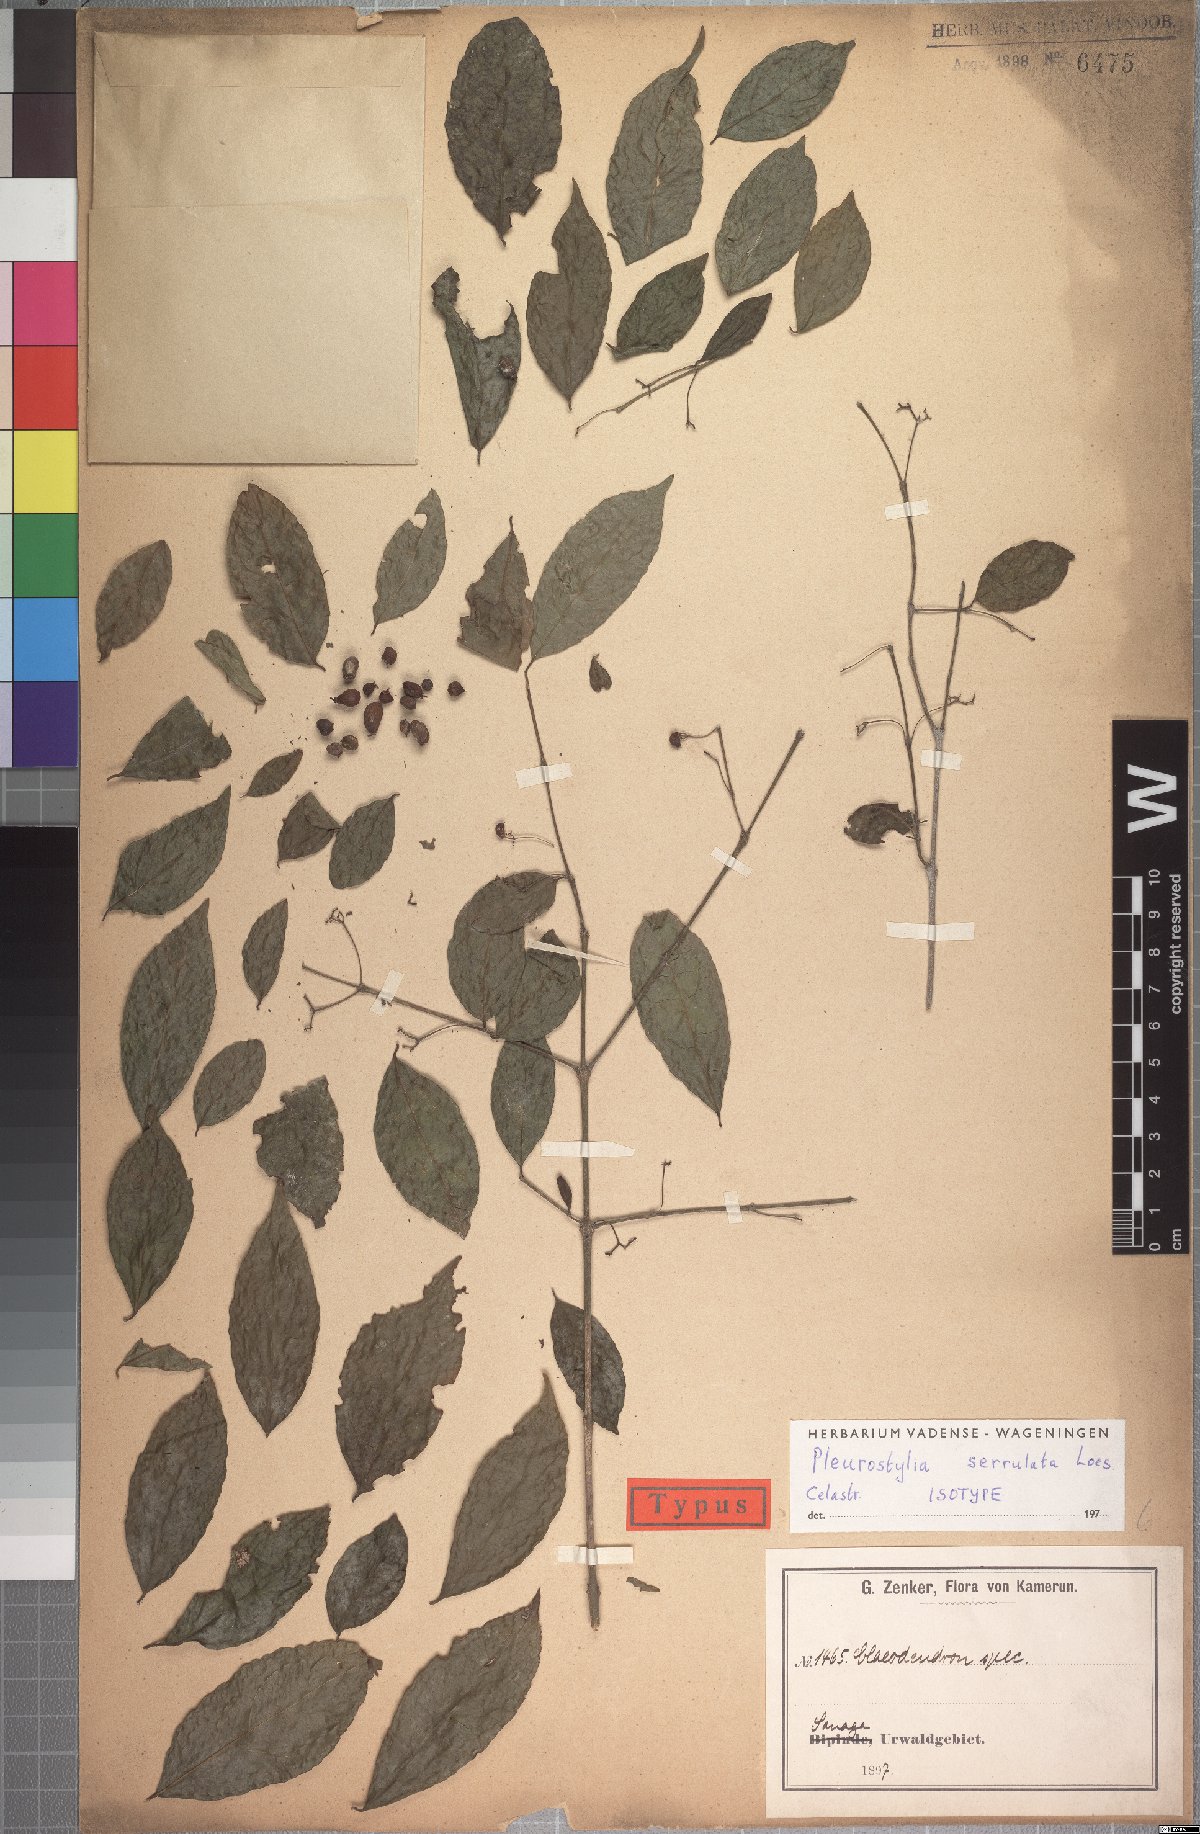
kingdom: Plantae
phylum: Tracheophyta
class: Magnoliopsida
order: Celastrales
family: Celastraceae
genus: Crossopetalum
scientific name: Crossopetalum serrulatum
